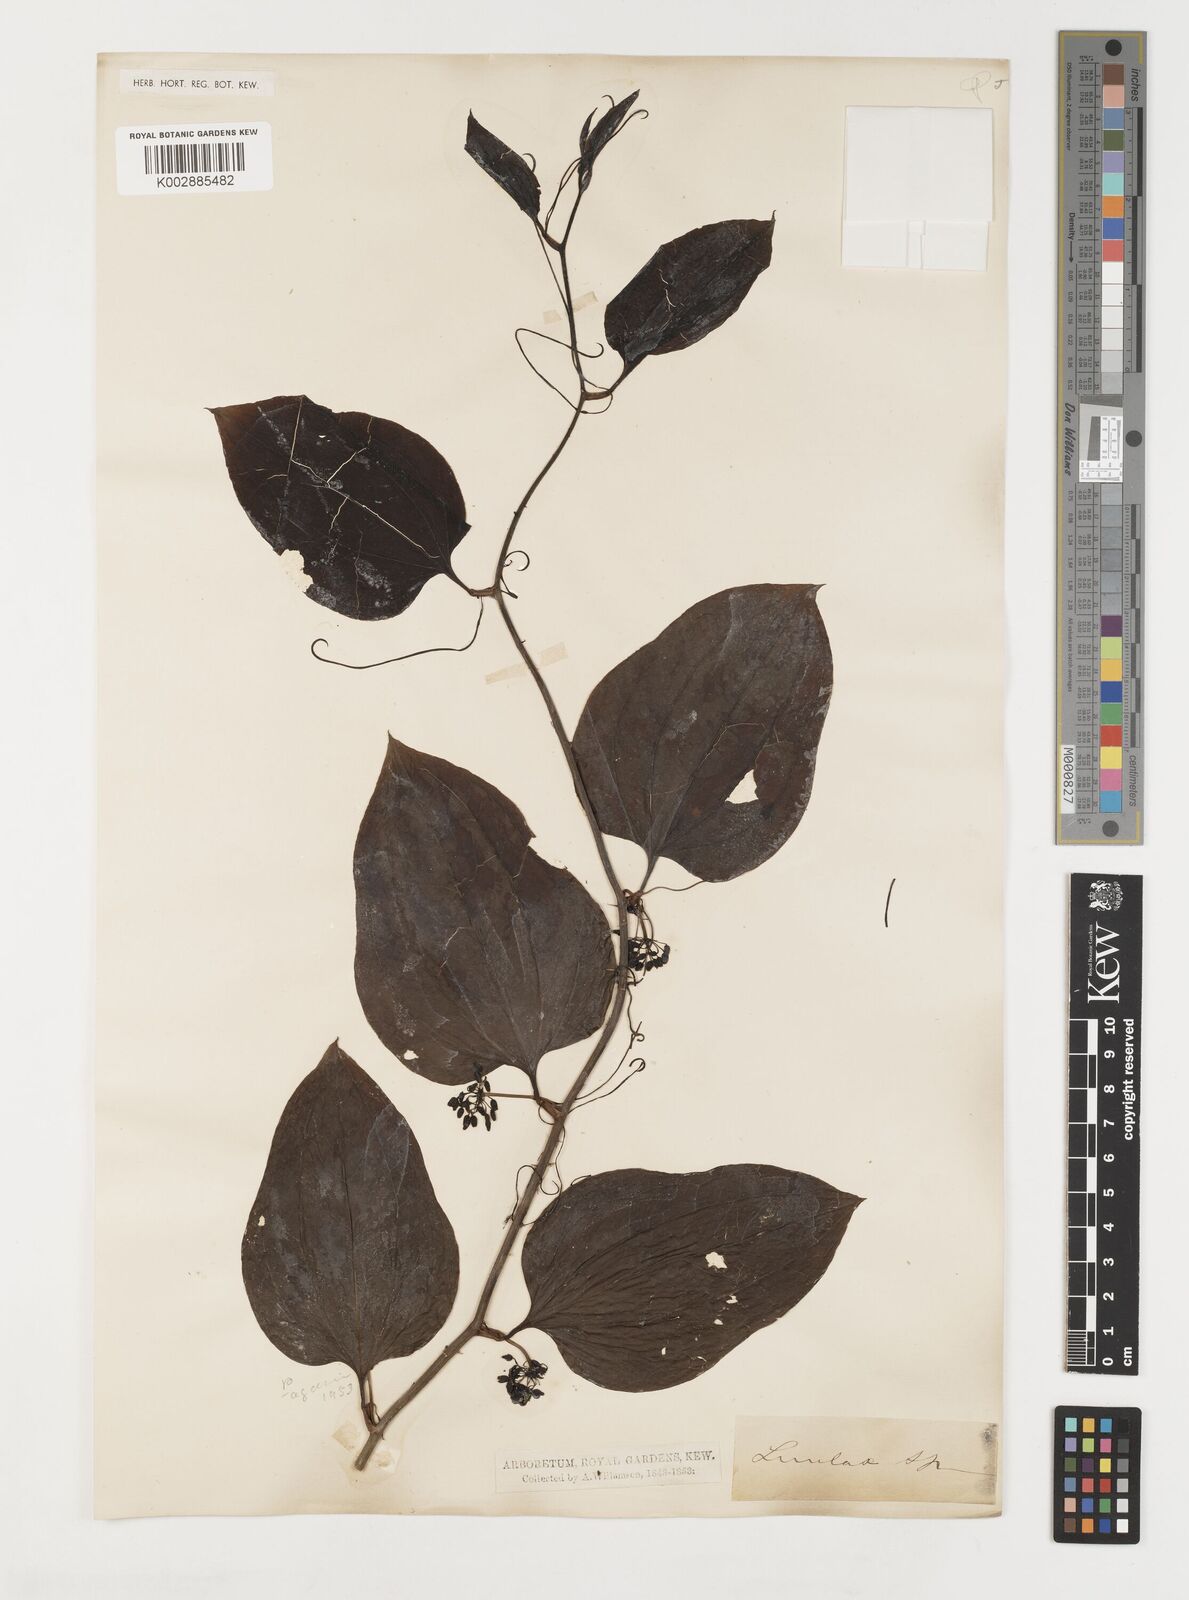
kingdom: Plantae
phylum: Tracheophyta
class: Liliopsida
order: Liliales
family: Smilacaceae
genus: Smilax
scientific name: Smilax
